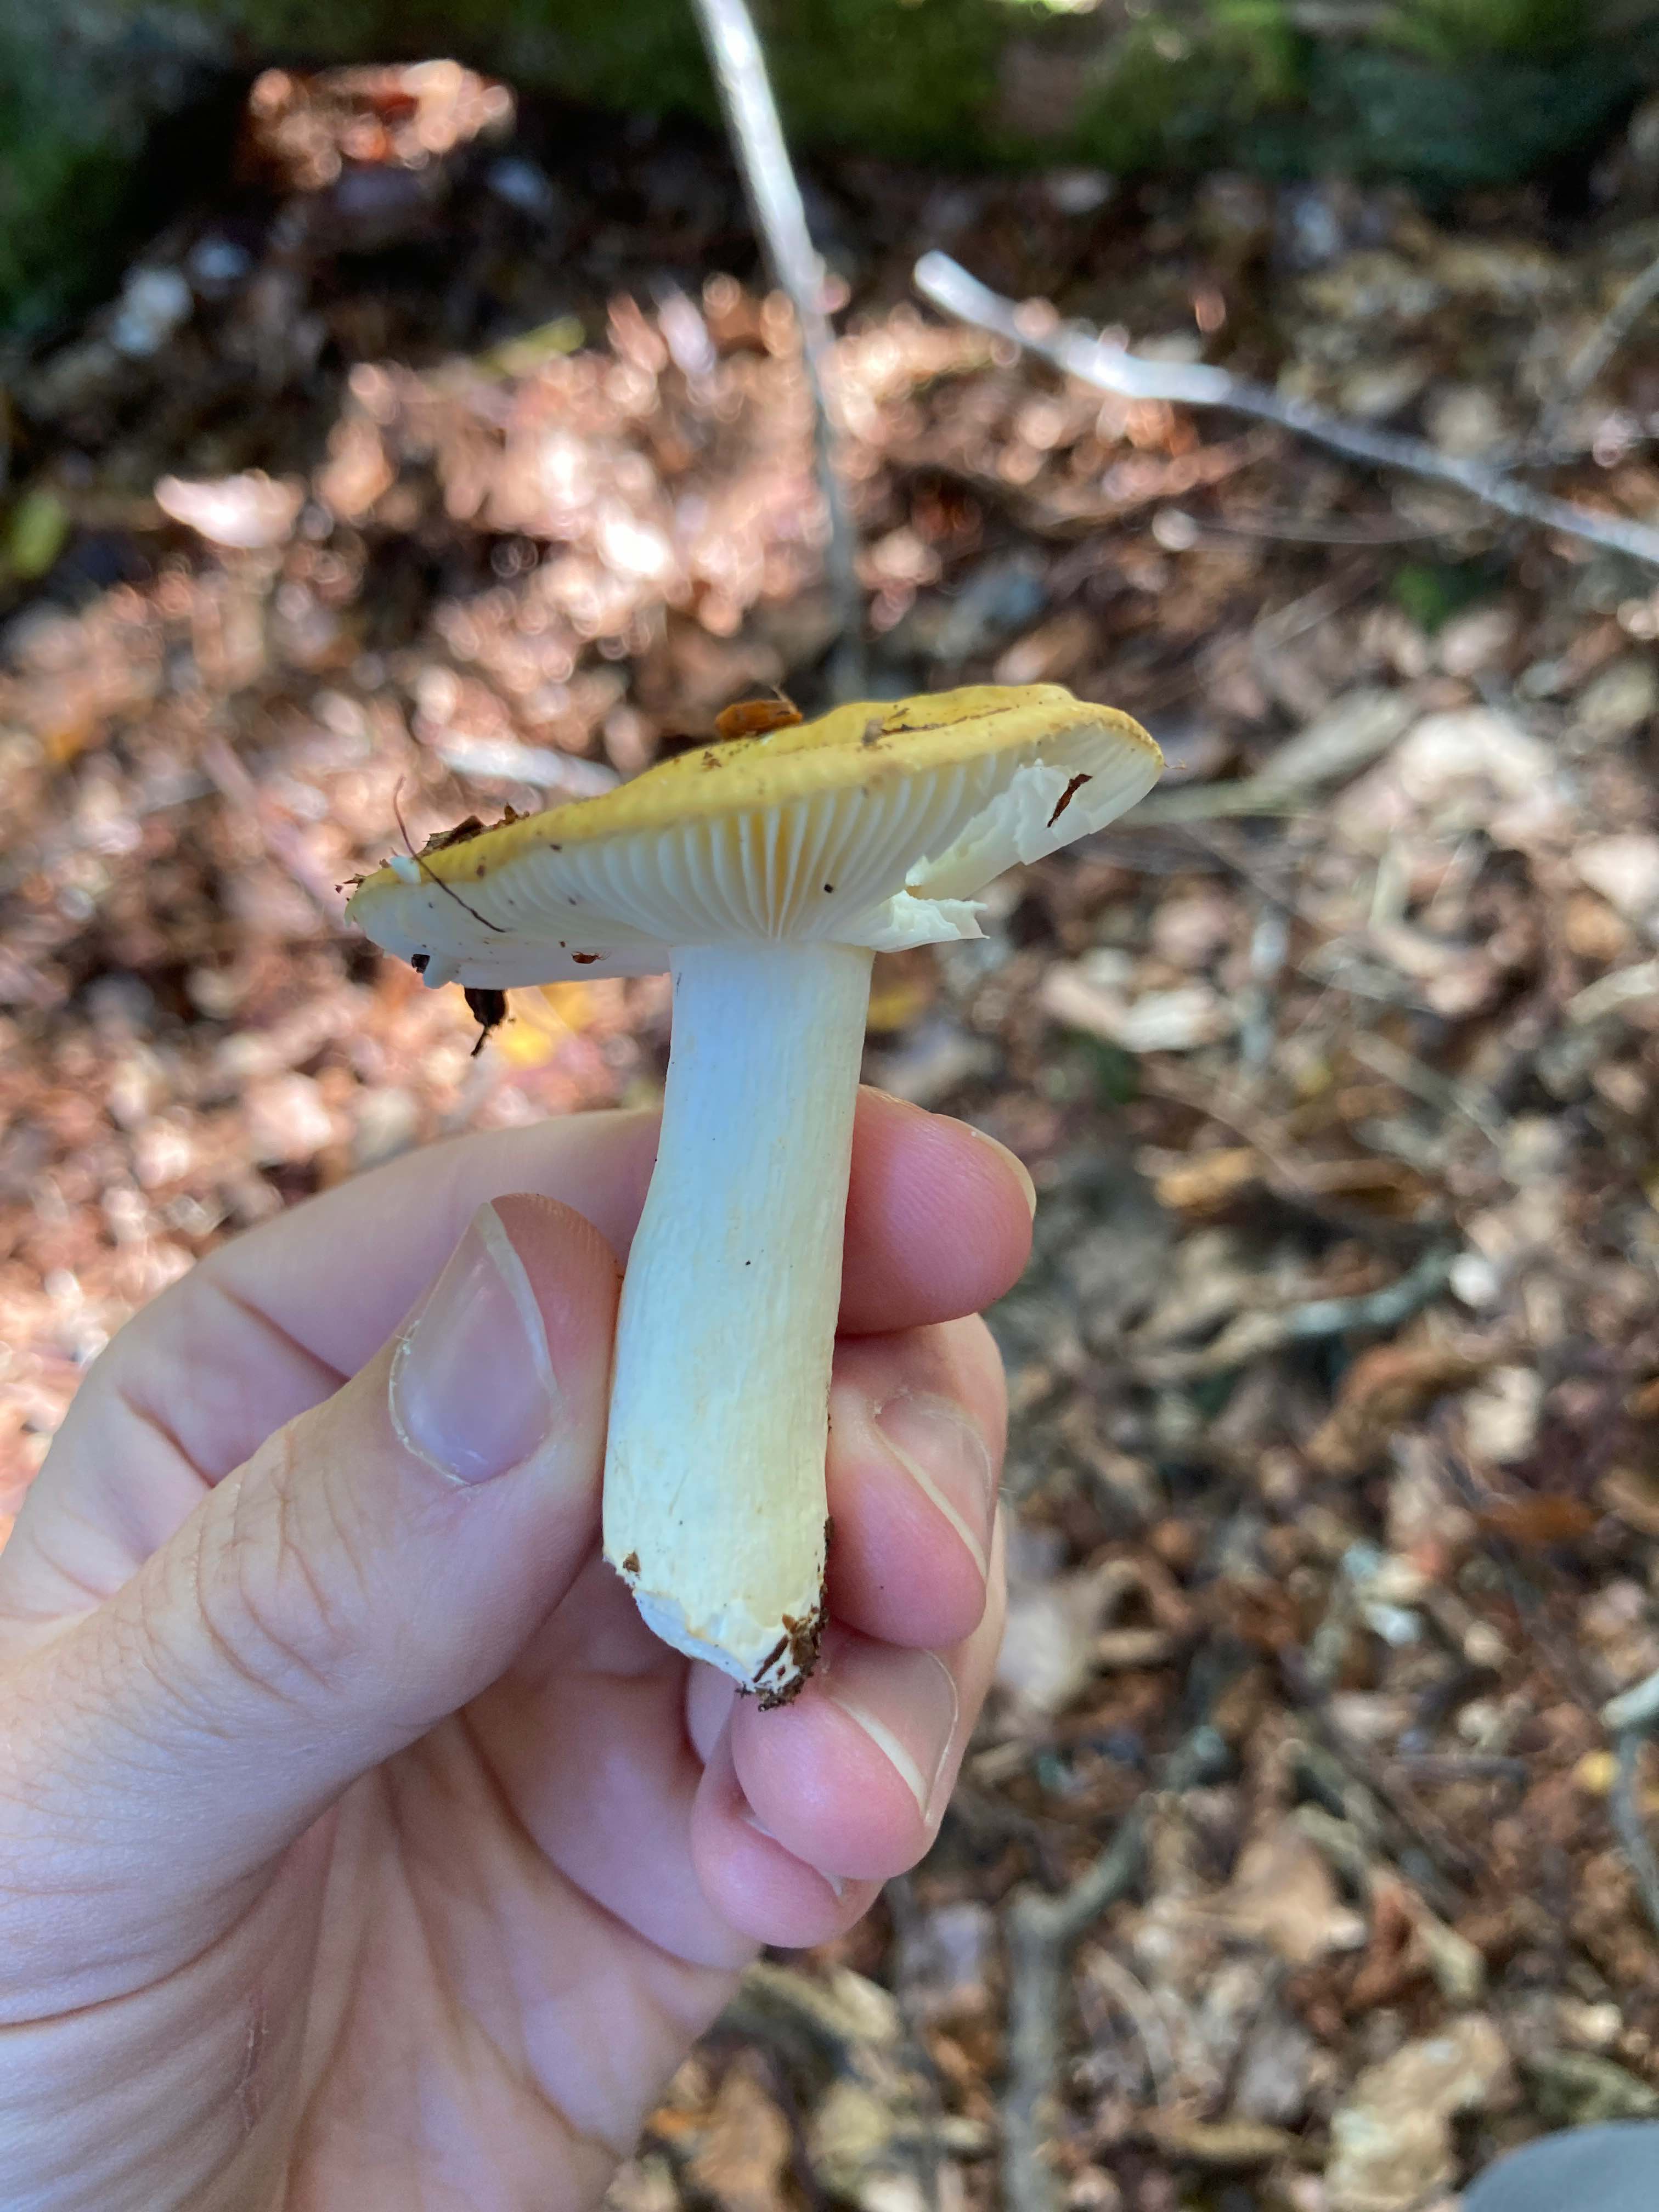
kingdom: Fungi
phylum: Basidiomycota
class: Agaricomycetes
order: Russulales
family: Russulaceae
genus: Russula
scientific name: Russula ochroleuca
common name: okkergul skørhat
